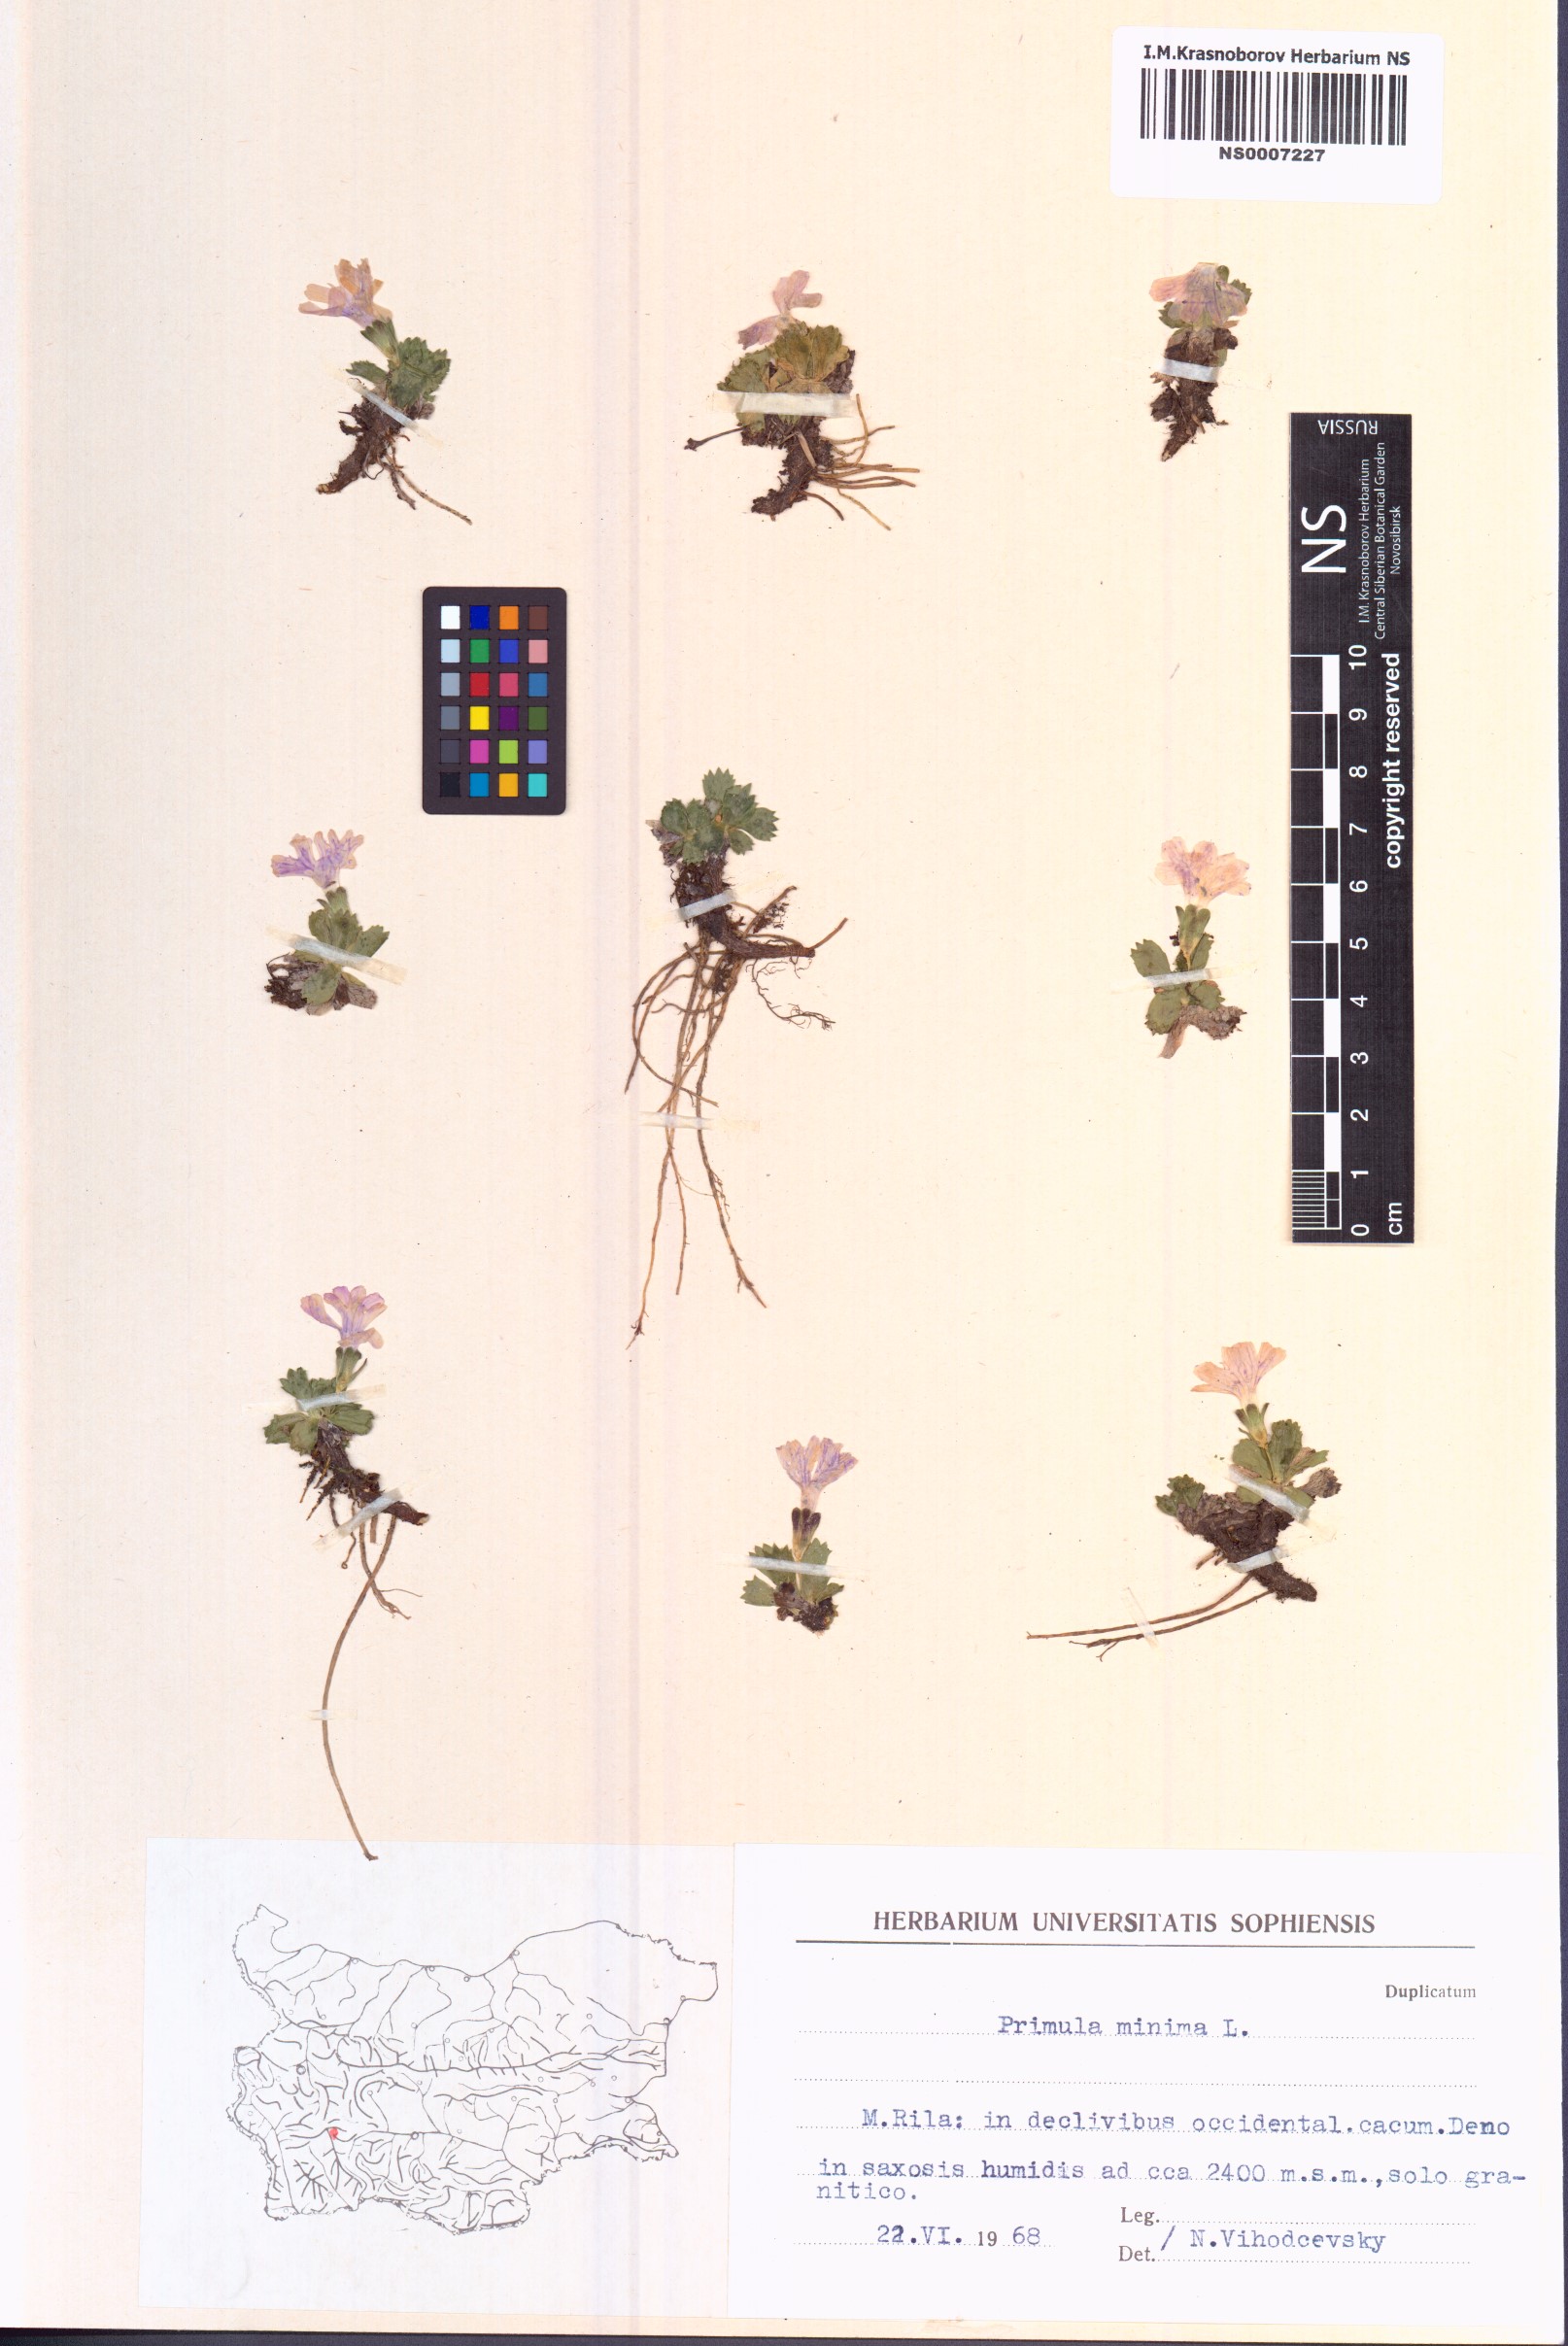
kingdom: Plantae
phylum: Tracheophyta
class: Magnoliopsida
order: Ericales
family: Primulaceae
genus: Primula
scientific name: Primula minima
